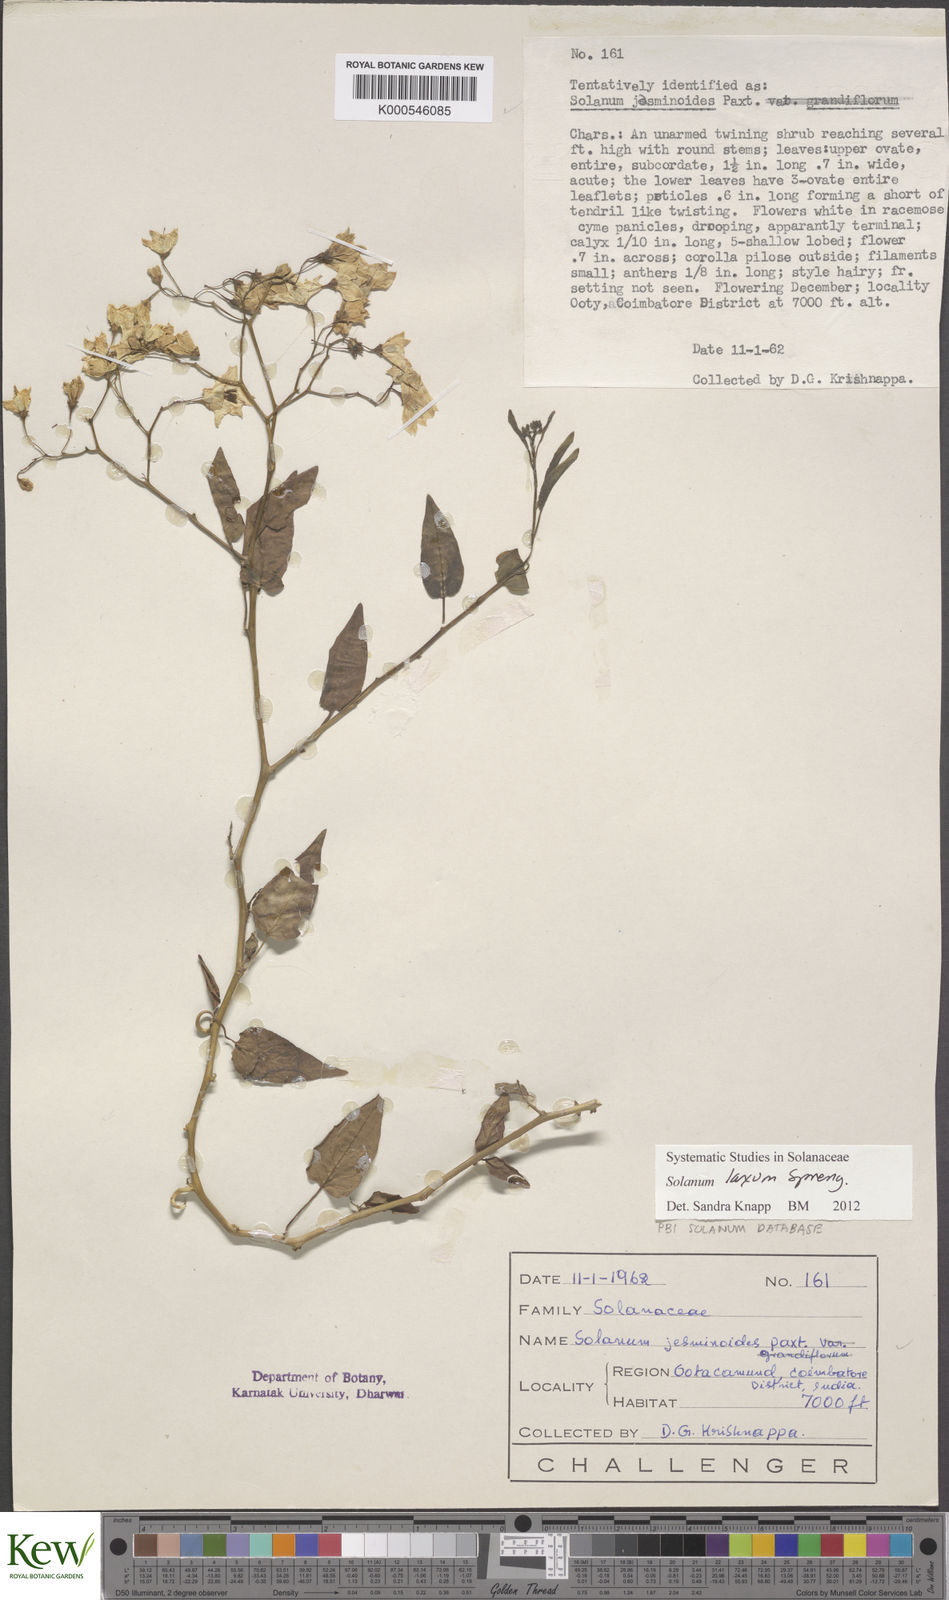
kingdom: Plantae
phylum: Tracheophyta
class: Magnoliopsida
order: Solanales
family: Solanaceae
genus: Solanum
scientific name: Solanum laxum
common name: Nightshade
